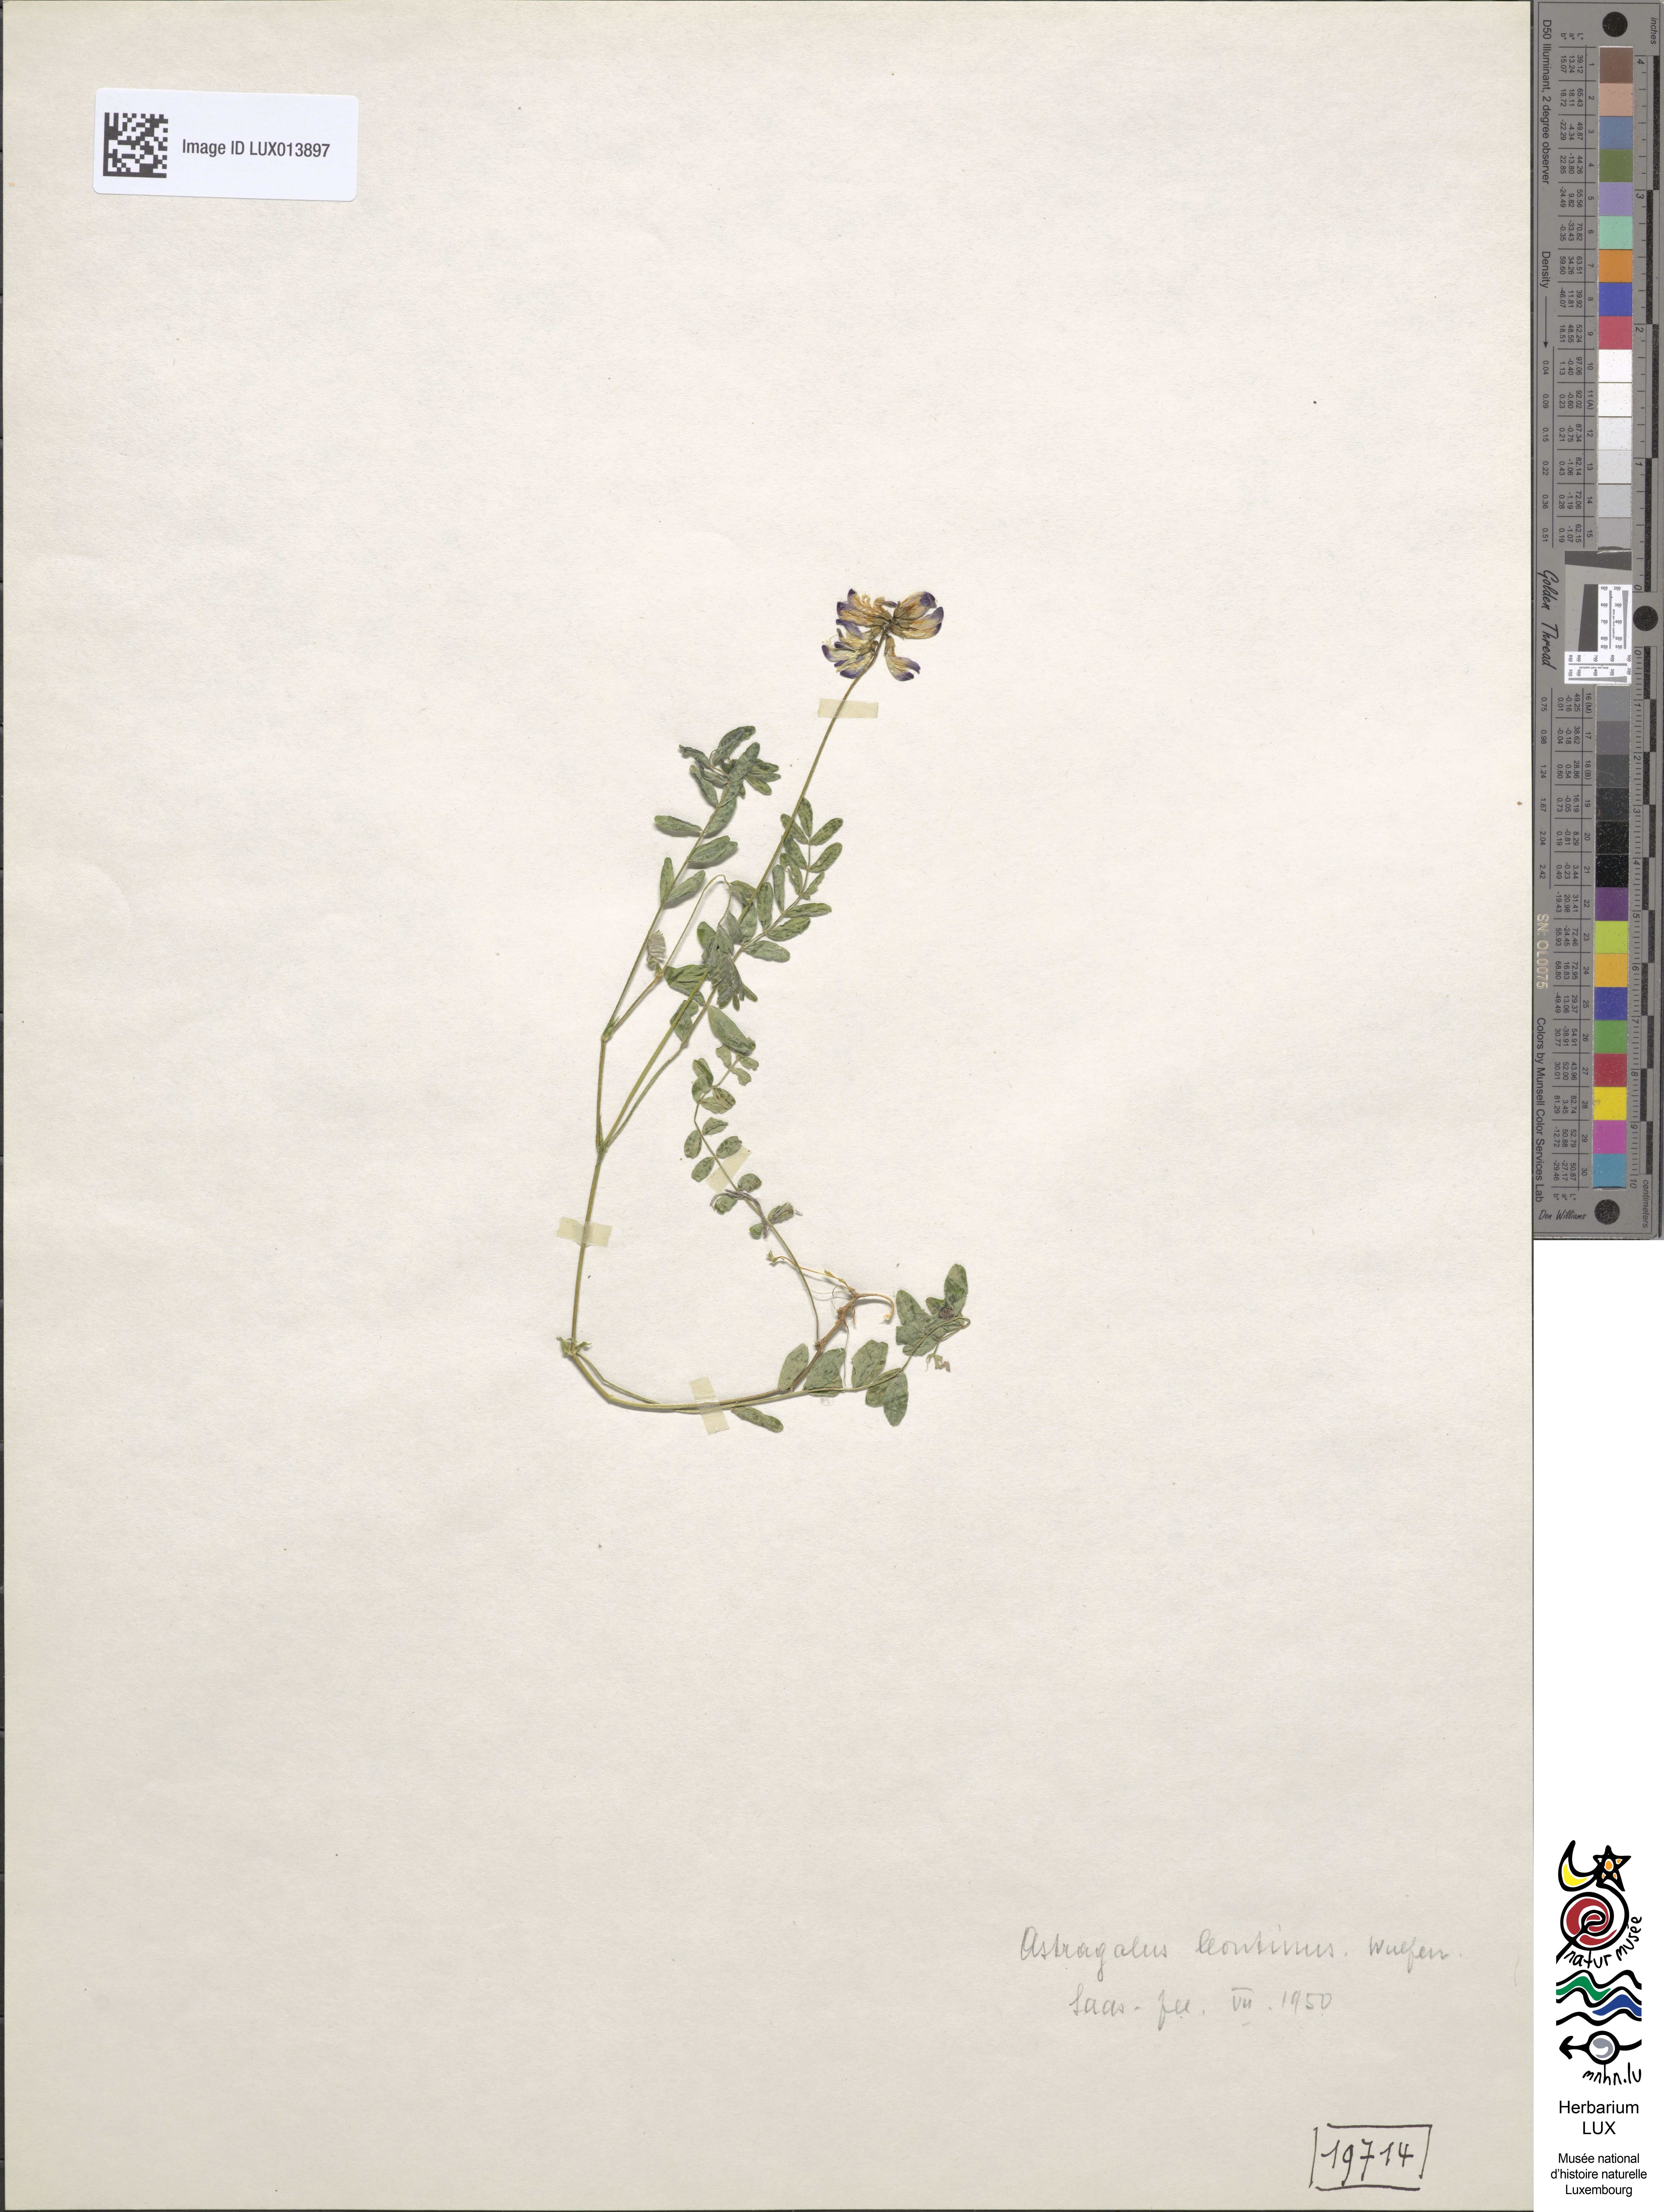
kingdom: Plantae
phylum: Tracheophyta
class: Magnoliopsida
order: Fabales
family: Fabaceae
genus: Astragalus
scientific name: Astragalus leontinus
